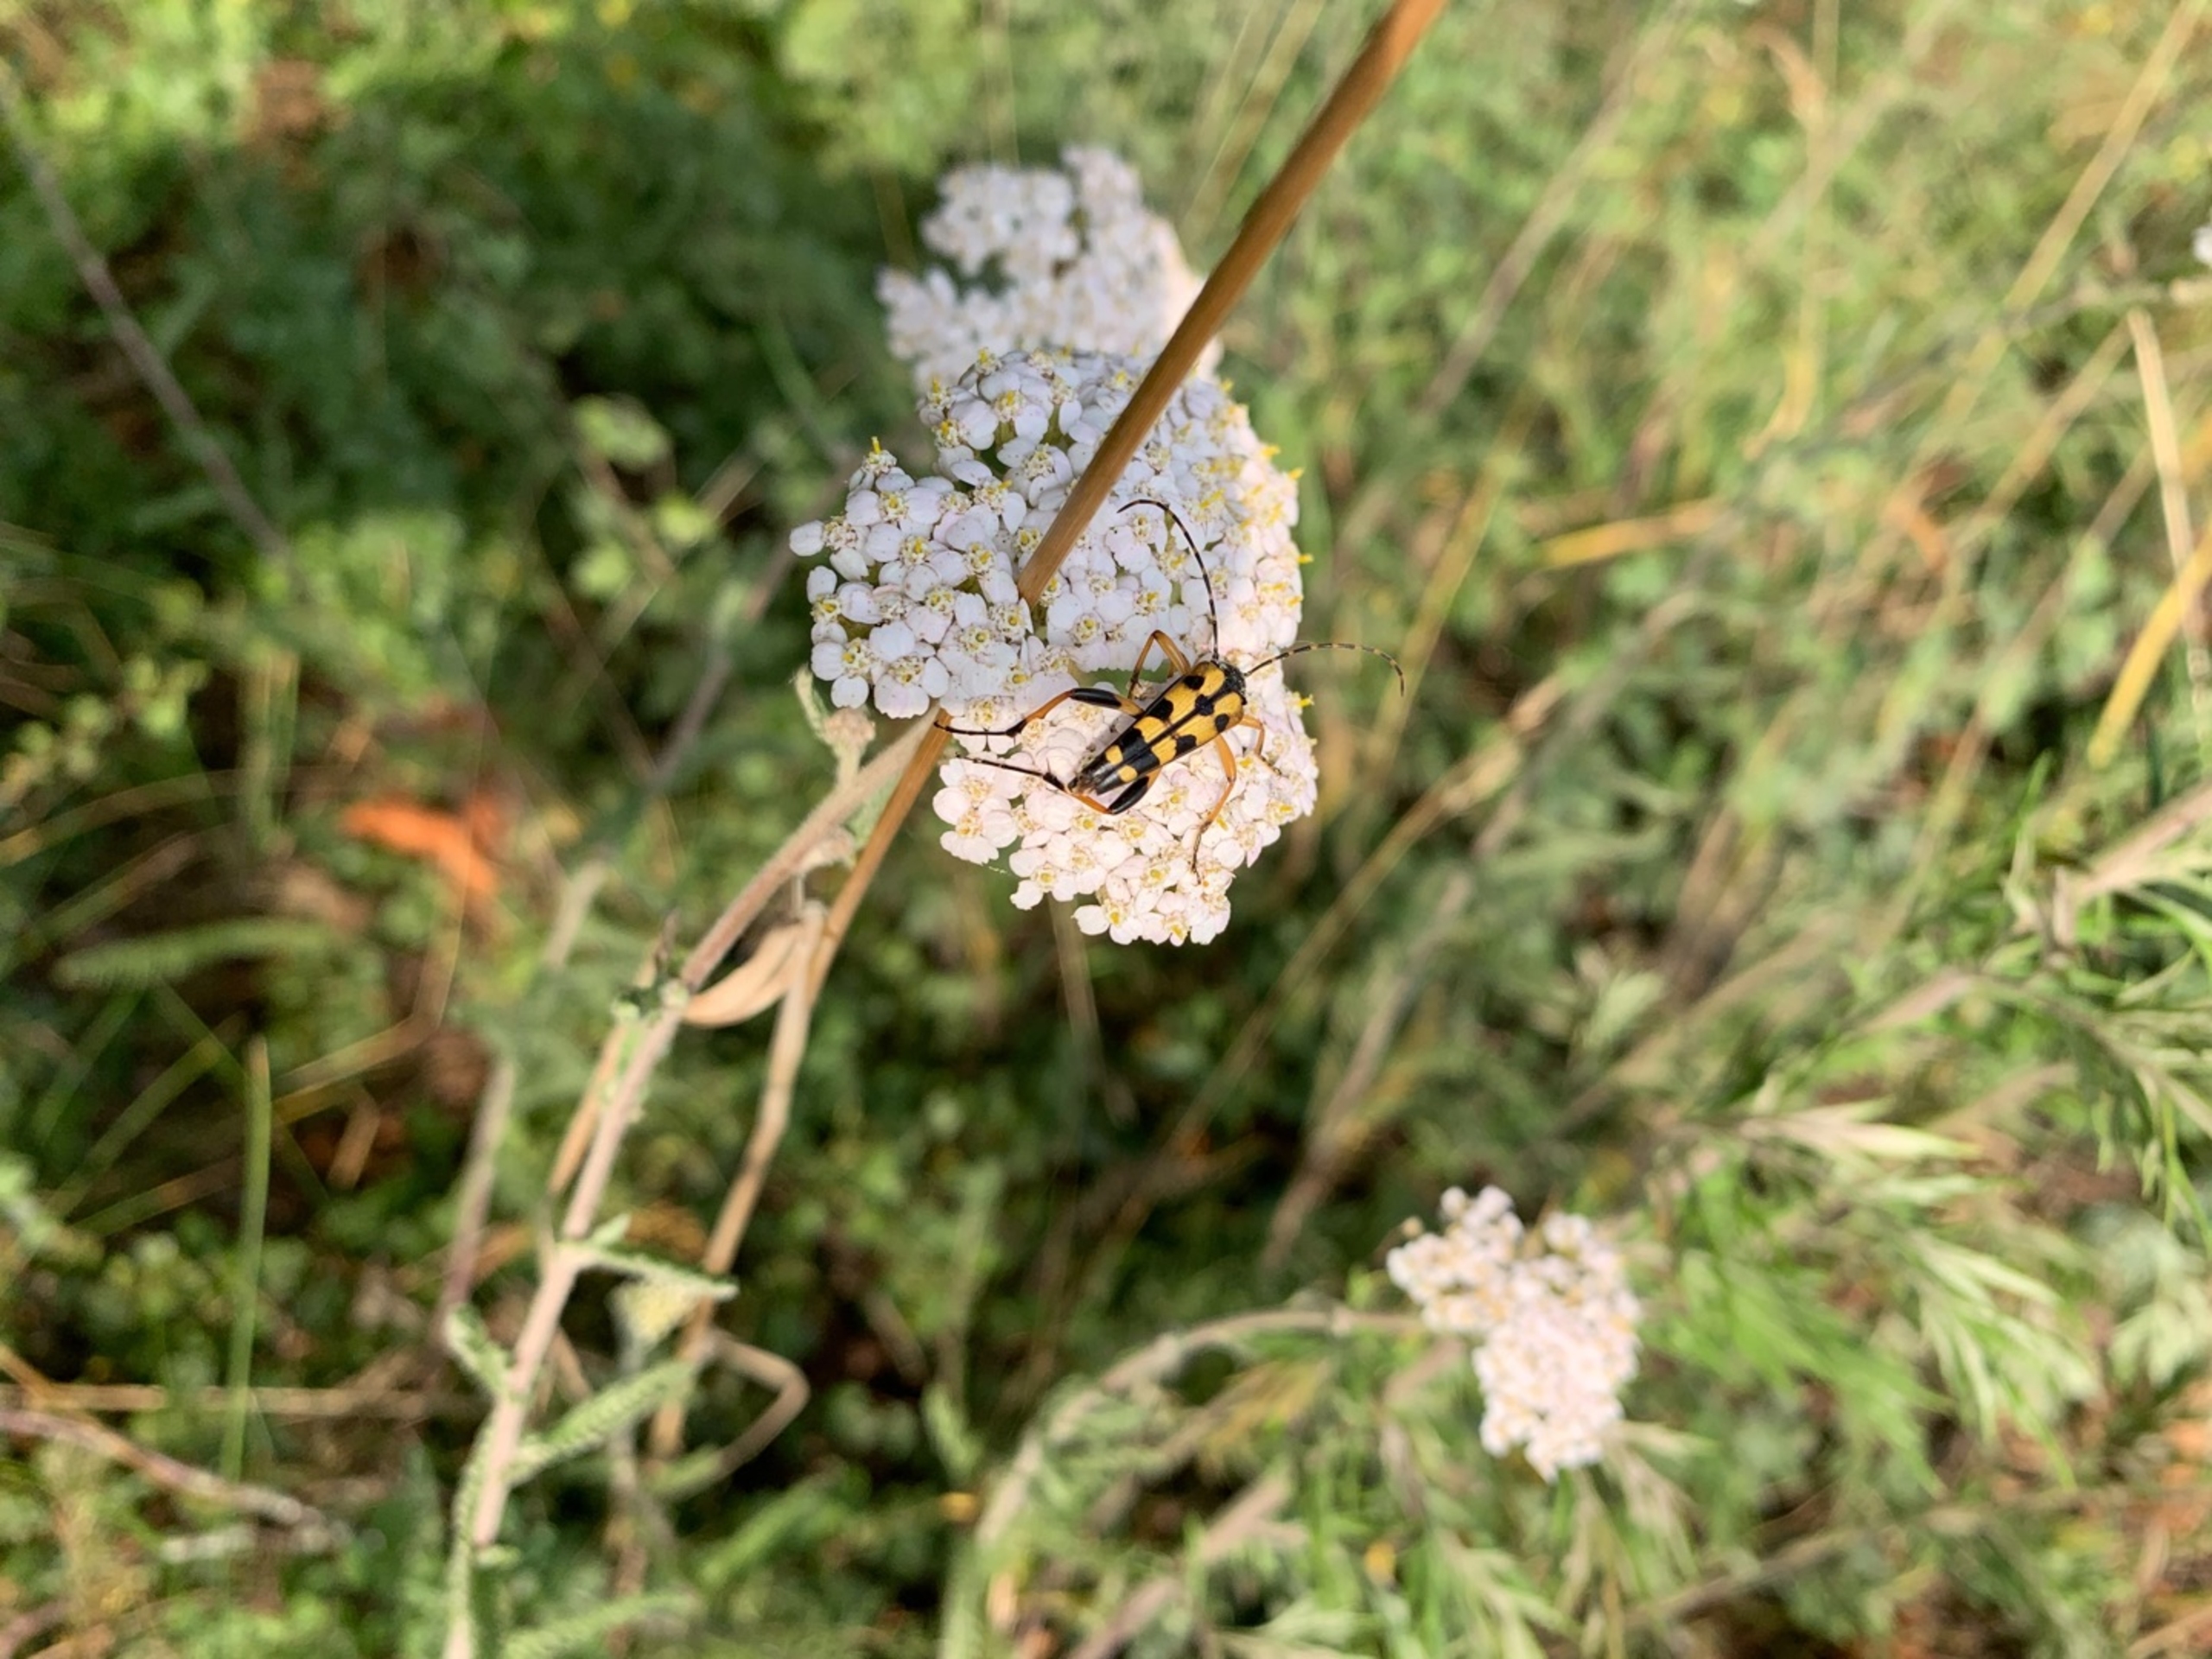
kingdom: Animalia
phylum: Arthropoda
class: Insecta
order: Coleoptera
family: Cerambycidae
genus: Rutpela
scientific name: Rutpela maculata
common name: Sydlig blomsterbuk
